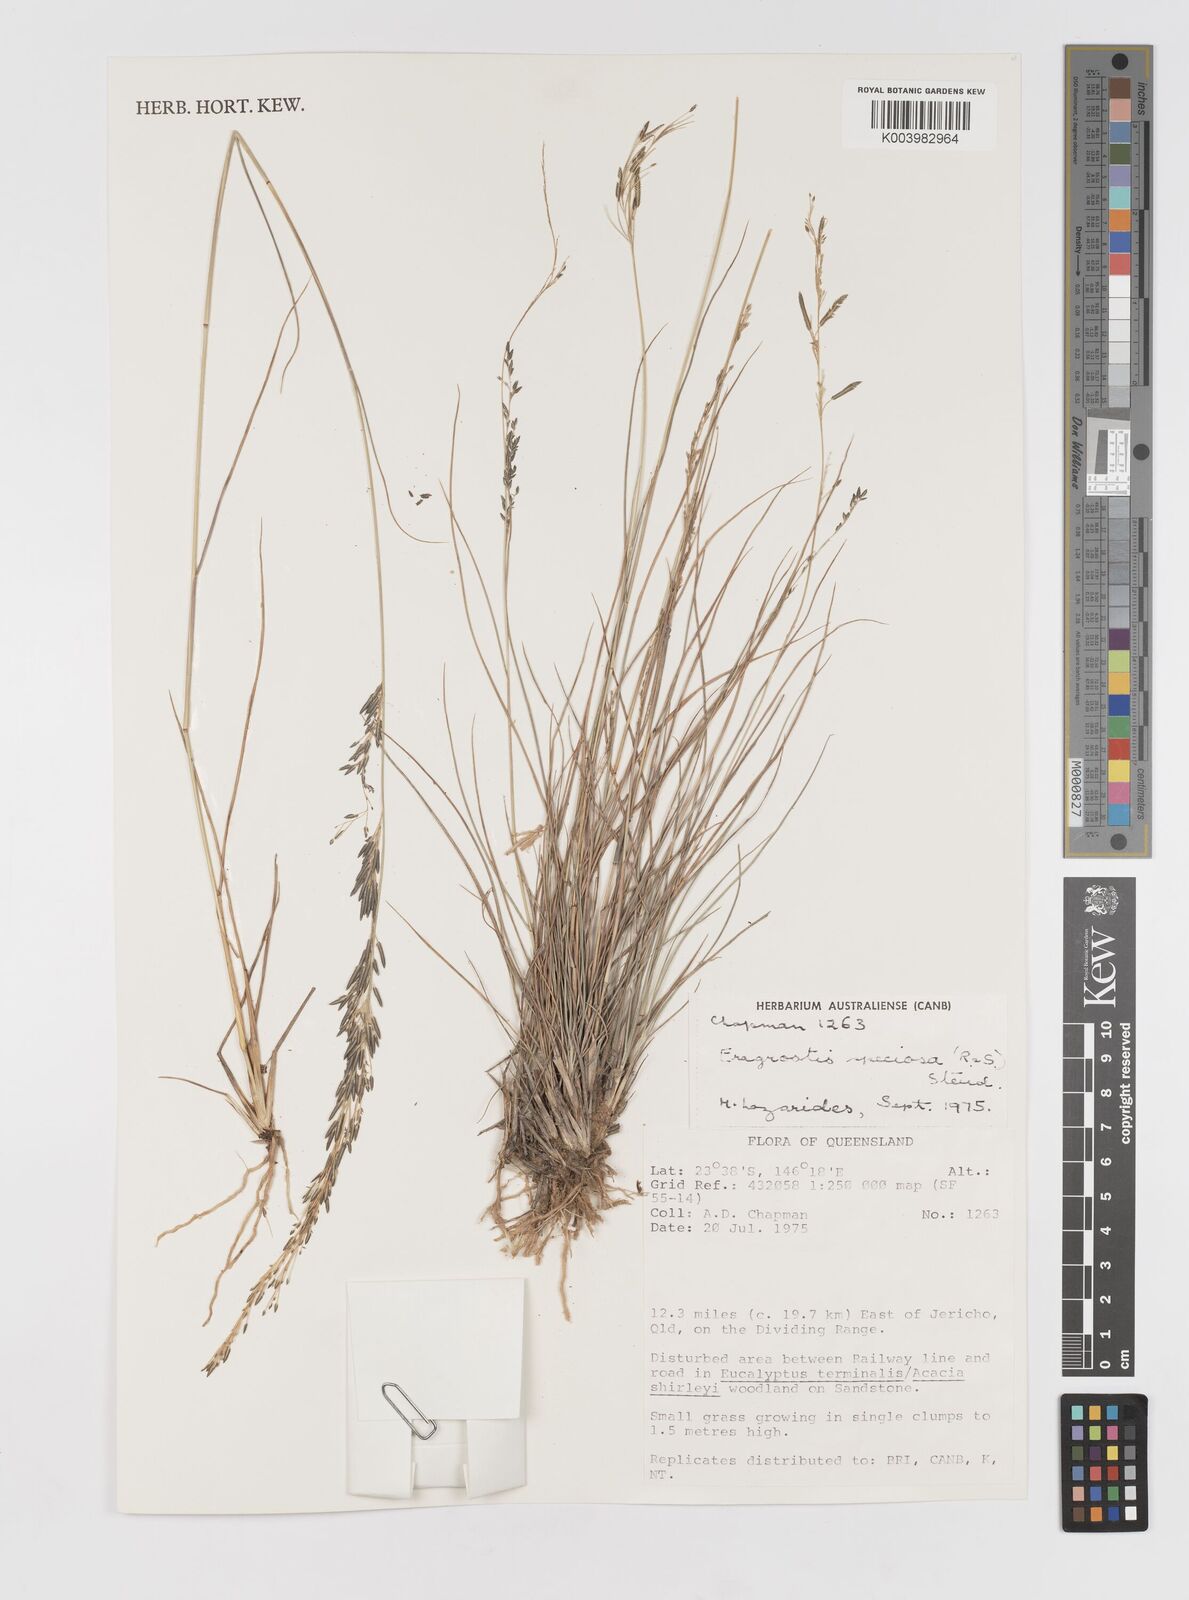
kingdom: Plantae
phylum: Tracheophyta
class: Liliopsida
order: Poales
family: Poaceae
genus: Eragrostis
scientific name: Eragrostis speciosa
